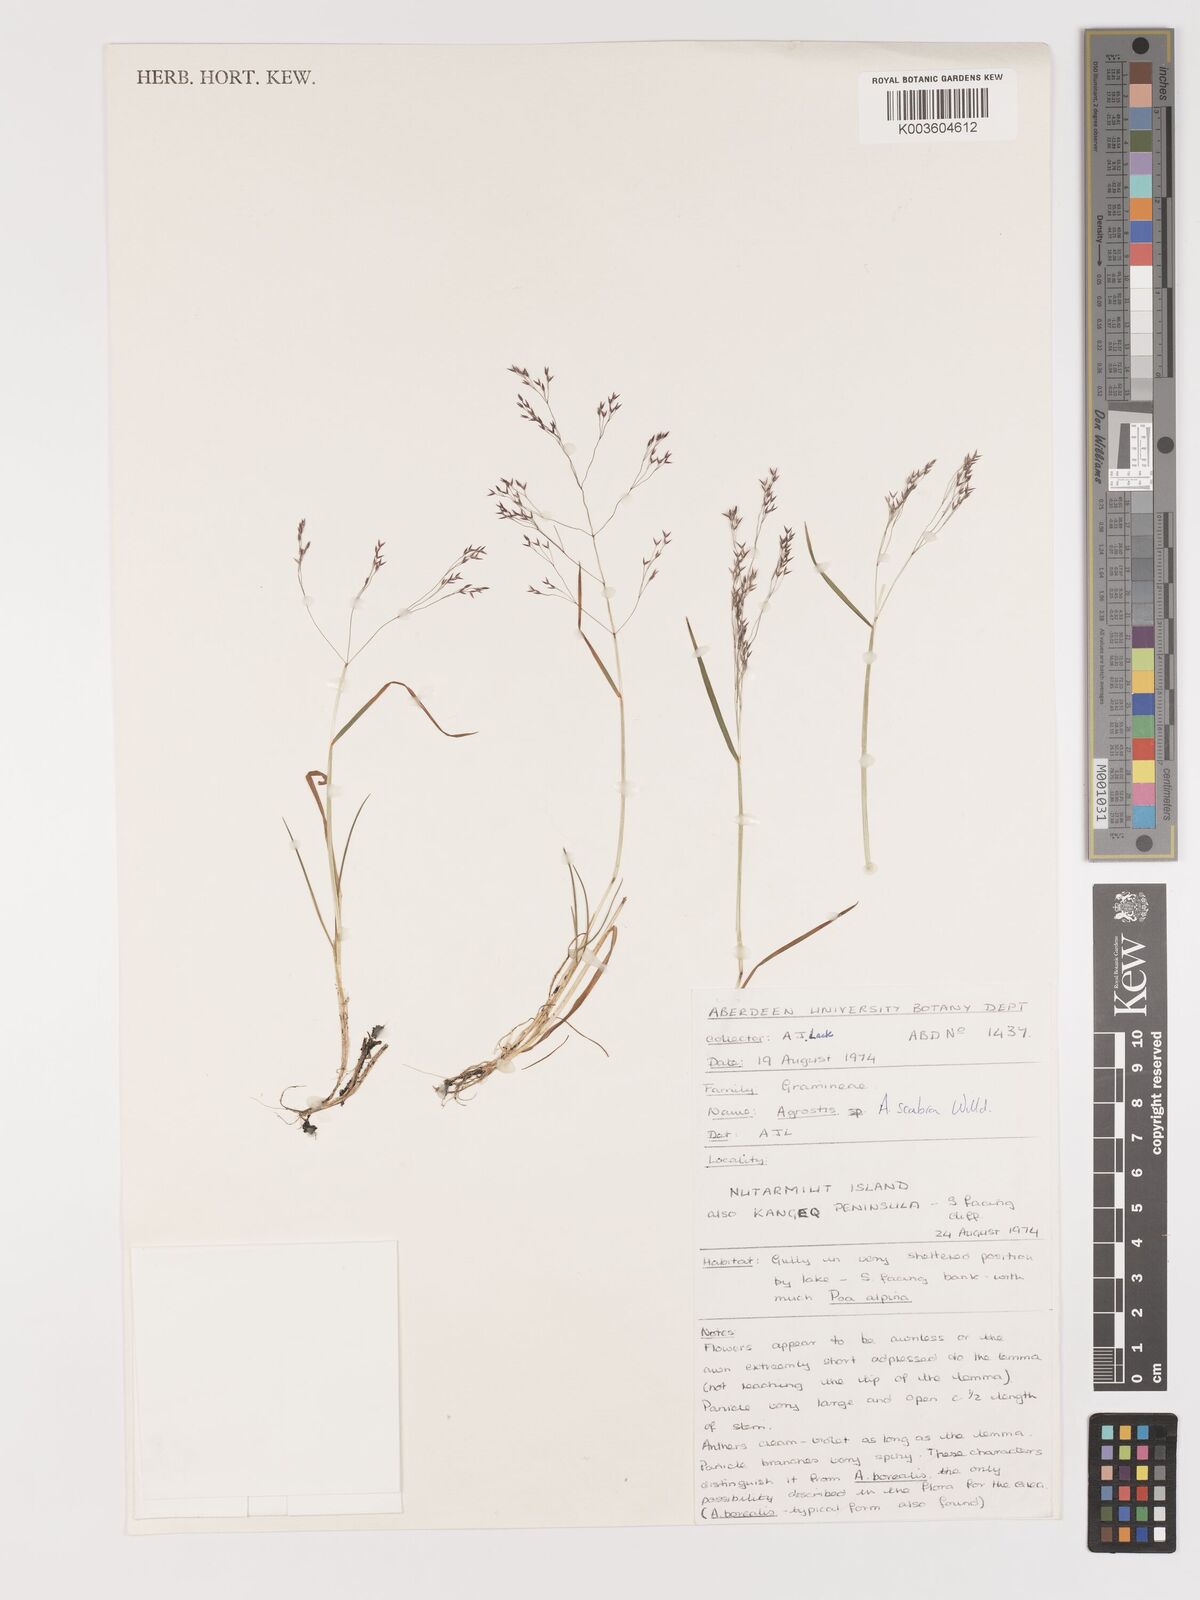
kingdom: Plantae
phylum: Tracheophyta
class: Liliopsida
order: Poales
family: Poaceae
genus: Agrostis
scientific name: Agrostis
